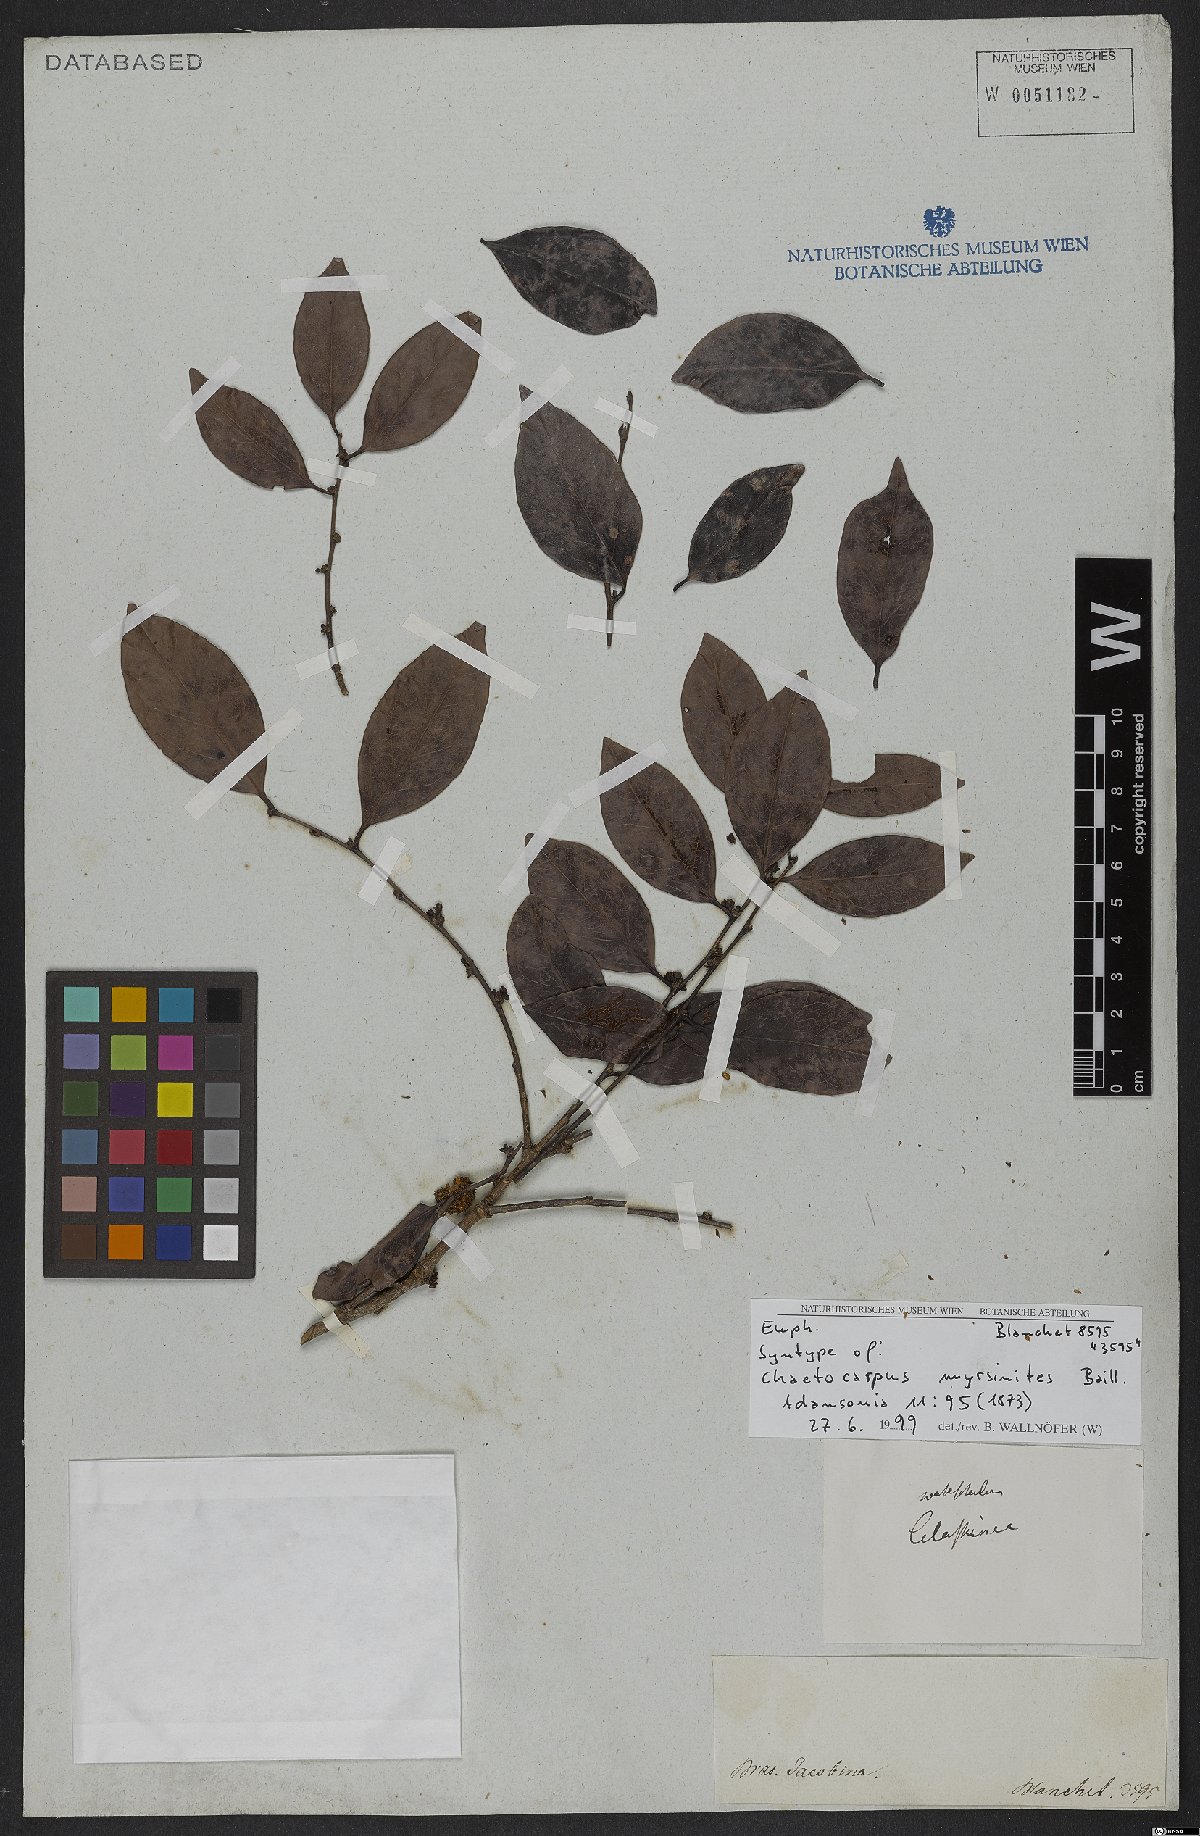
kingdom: Plantae
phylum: Tracheophyta
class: Magnoliopsida
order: Malpighiales
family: Peraceae
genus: Chaetocarpus
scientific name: Chaetocarpus myrsinites
